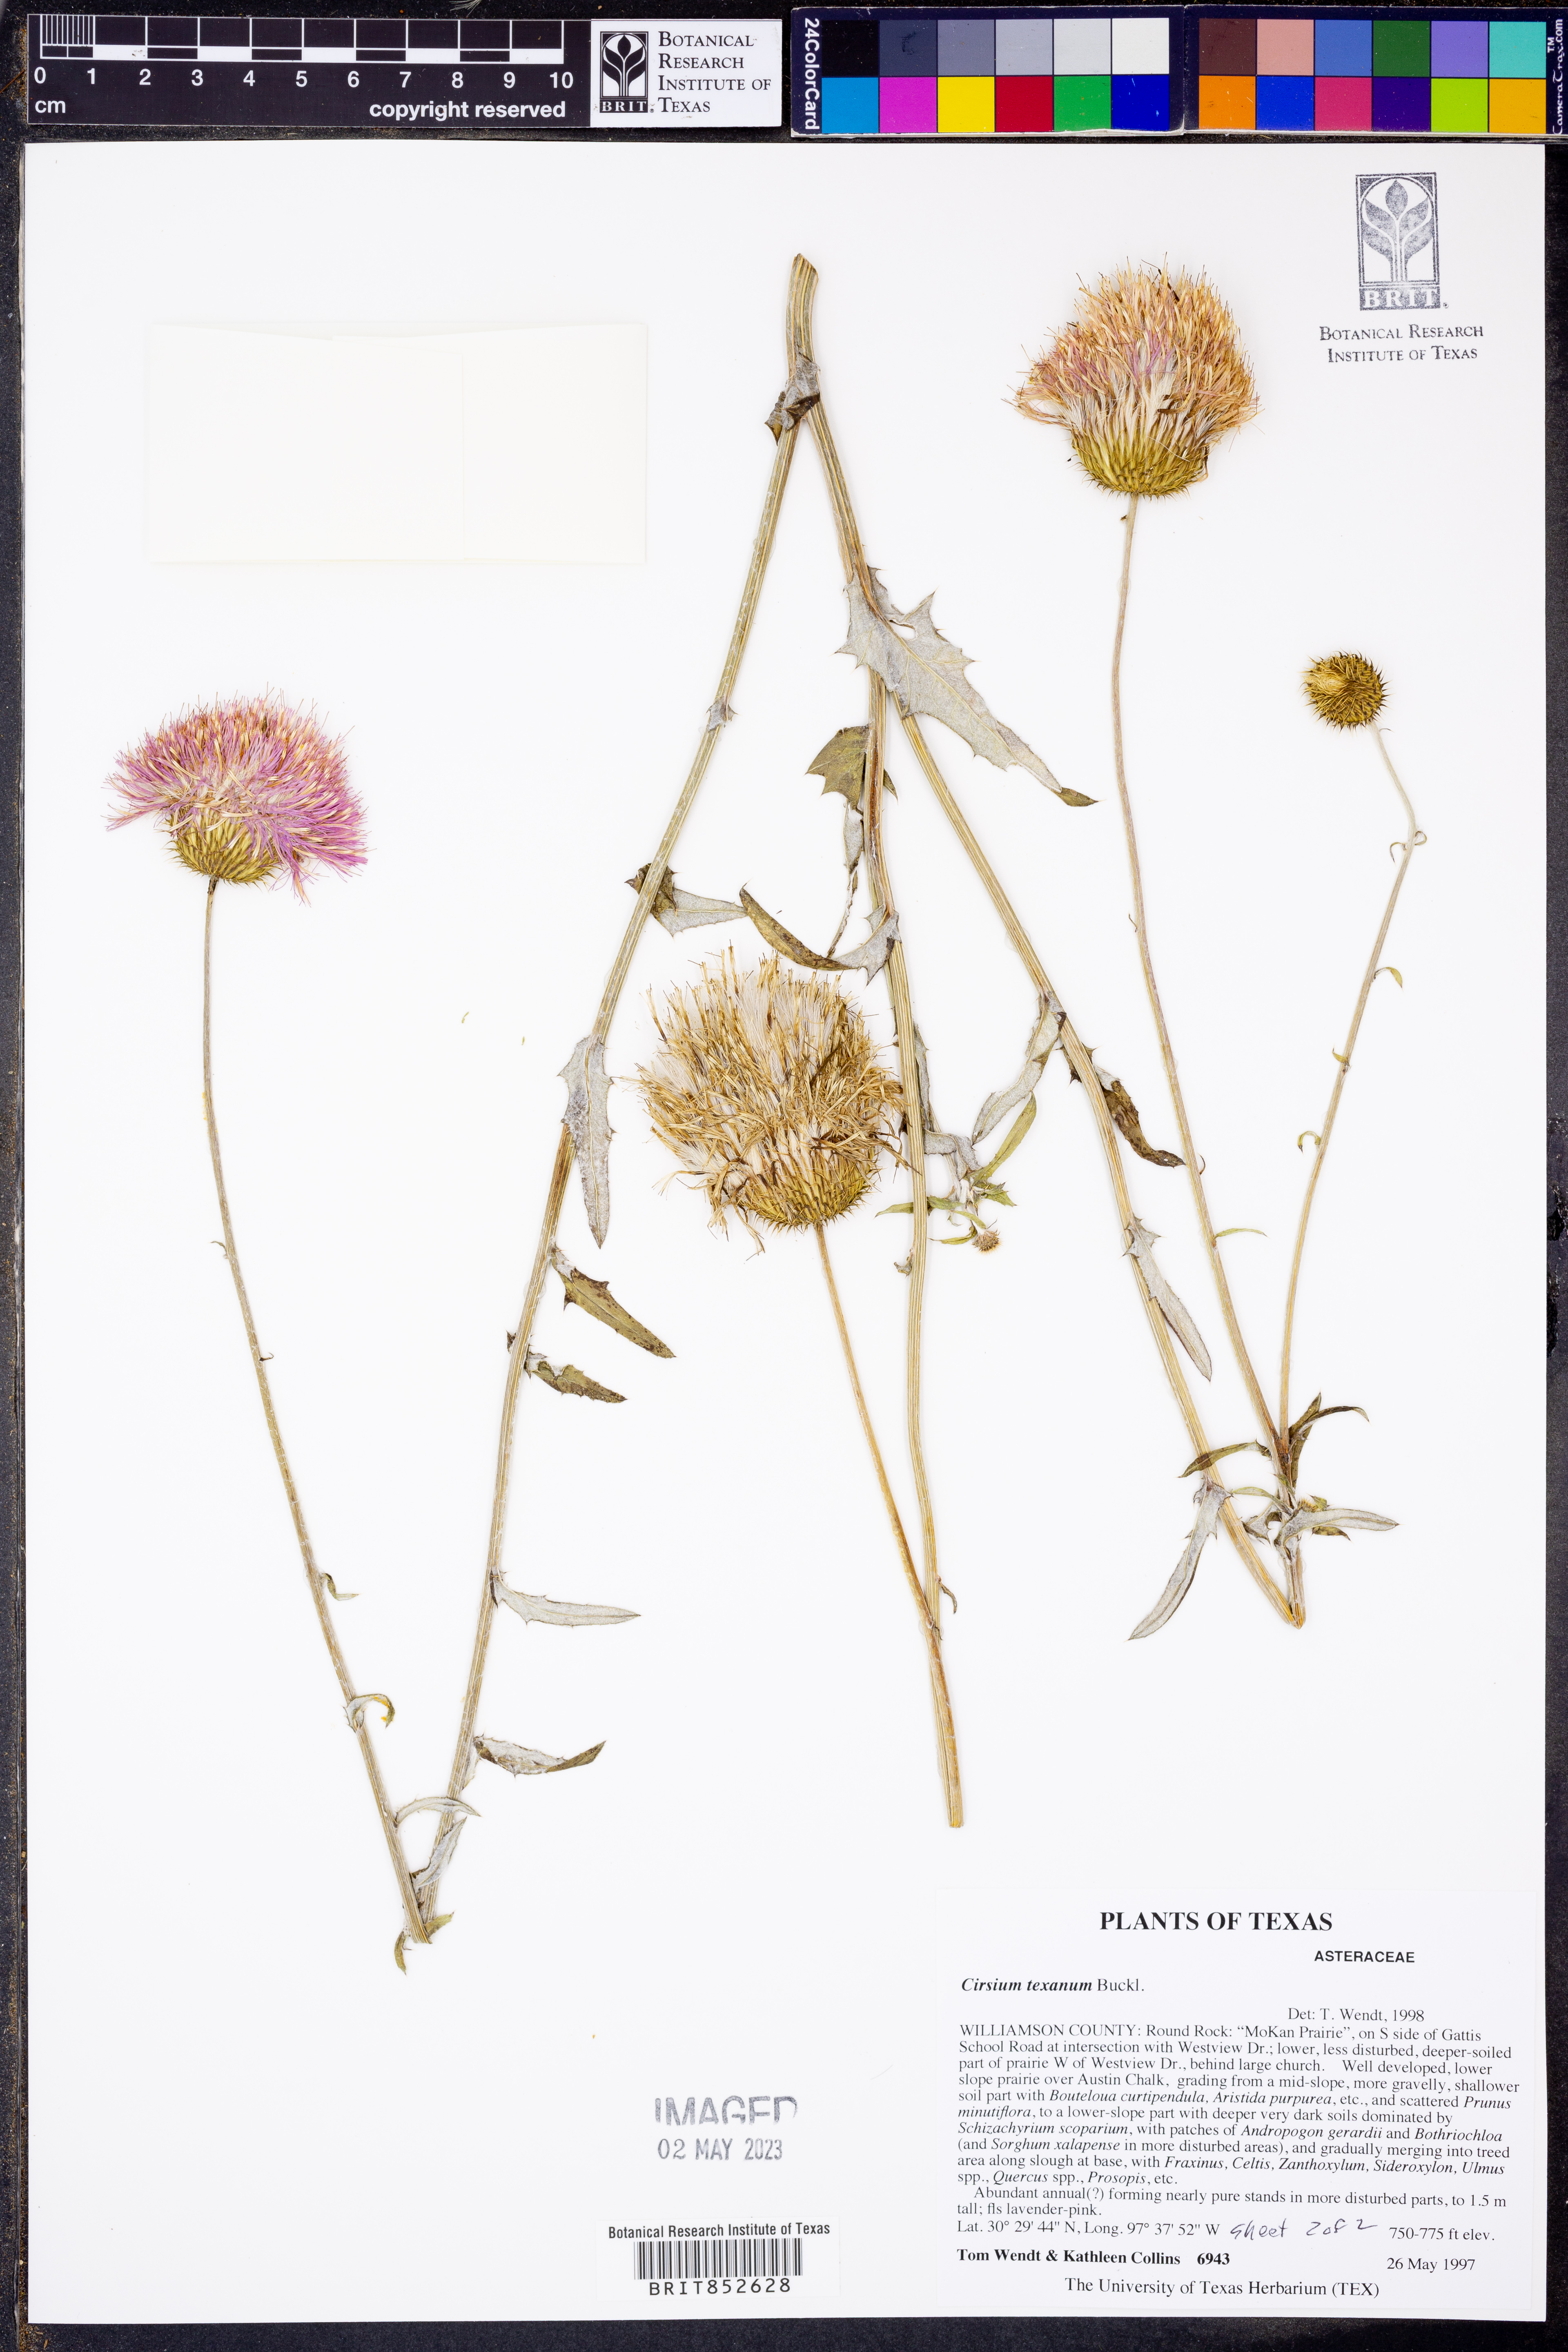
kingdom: Plantae
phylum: Tracheophyta
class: Magnoliopsida
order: Asterales
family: Asteraceae
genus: Cirsium
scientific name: Cirsium texanum
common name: Texas purple thistle
